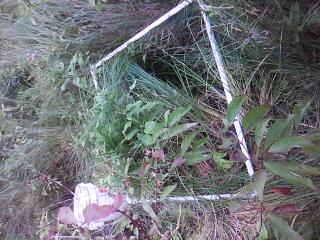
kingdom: Plantae
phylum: Tracheophyta
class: Magnoliopsida
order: Rosales
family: Rosaceae
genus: Spiraea
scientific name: Spiraea alba
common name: Pale bridewort
